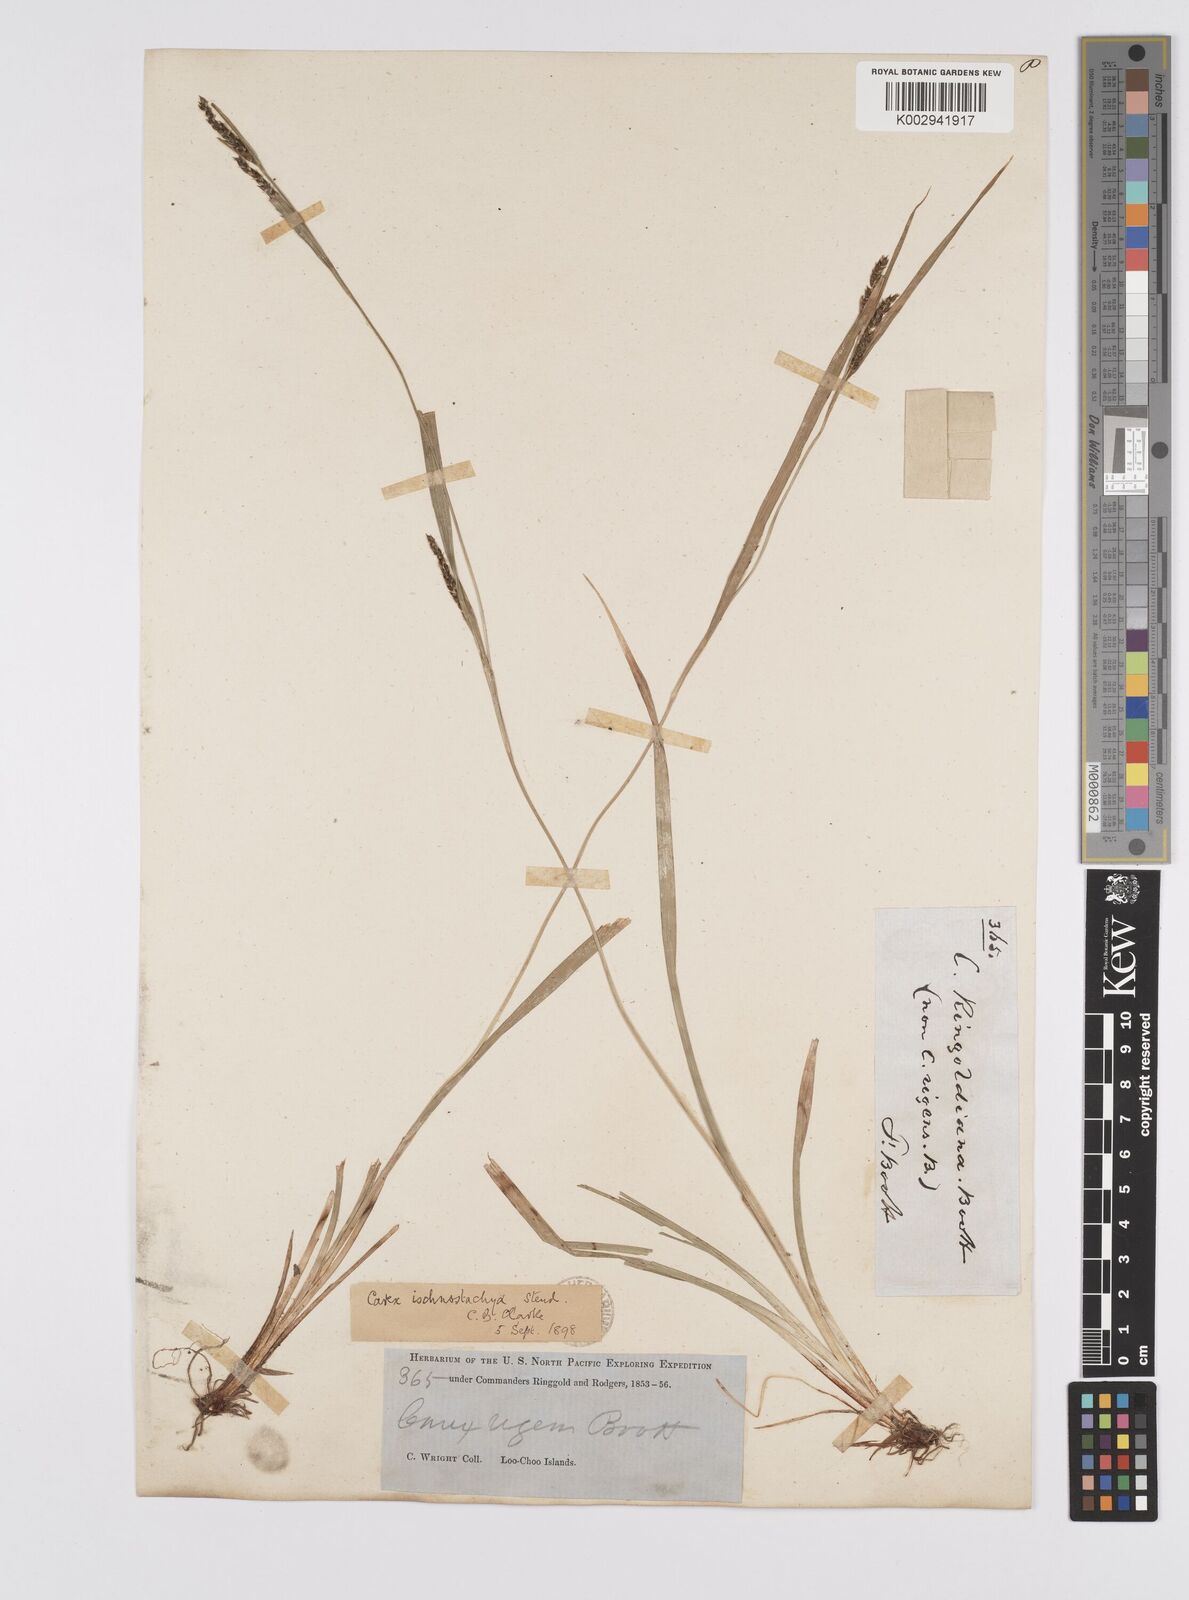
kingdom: Plantae
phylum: Tracheophyta
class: Liliopsida
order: Poales
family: Cyperaceae
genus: Carex
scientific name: Carex ischnostachya
